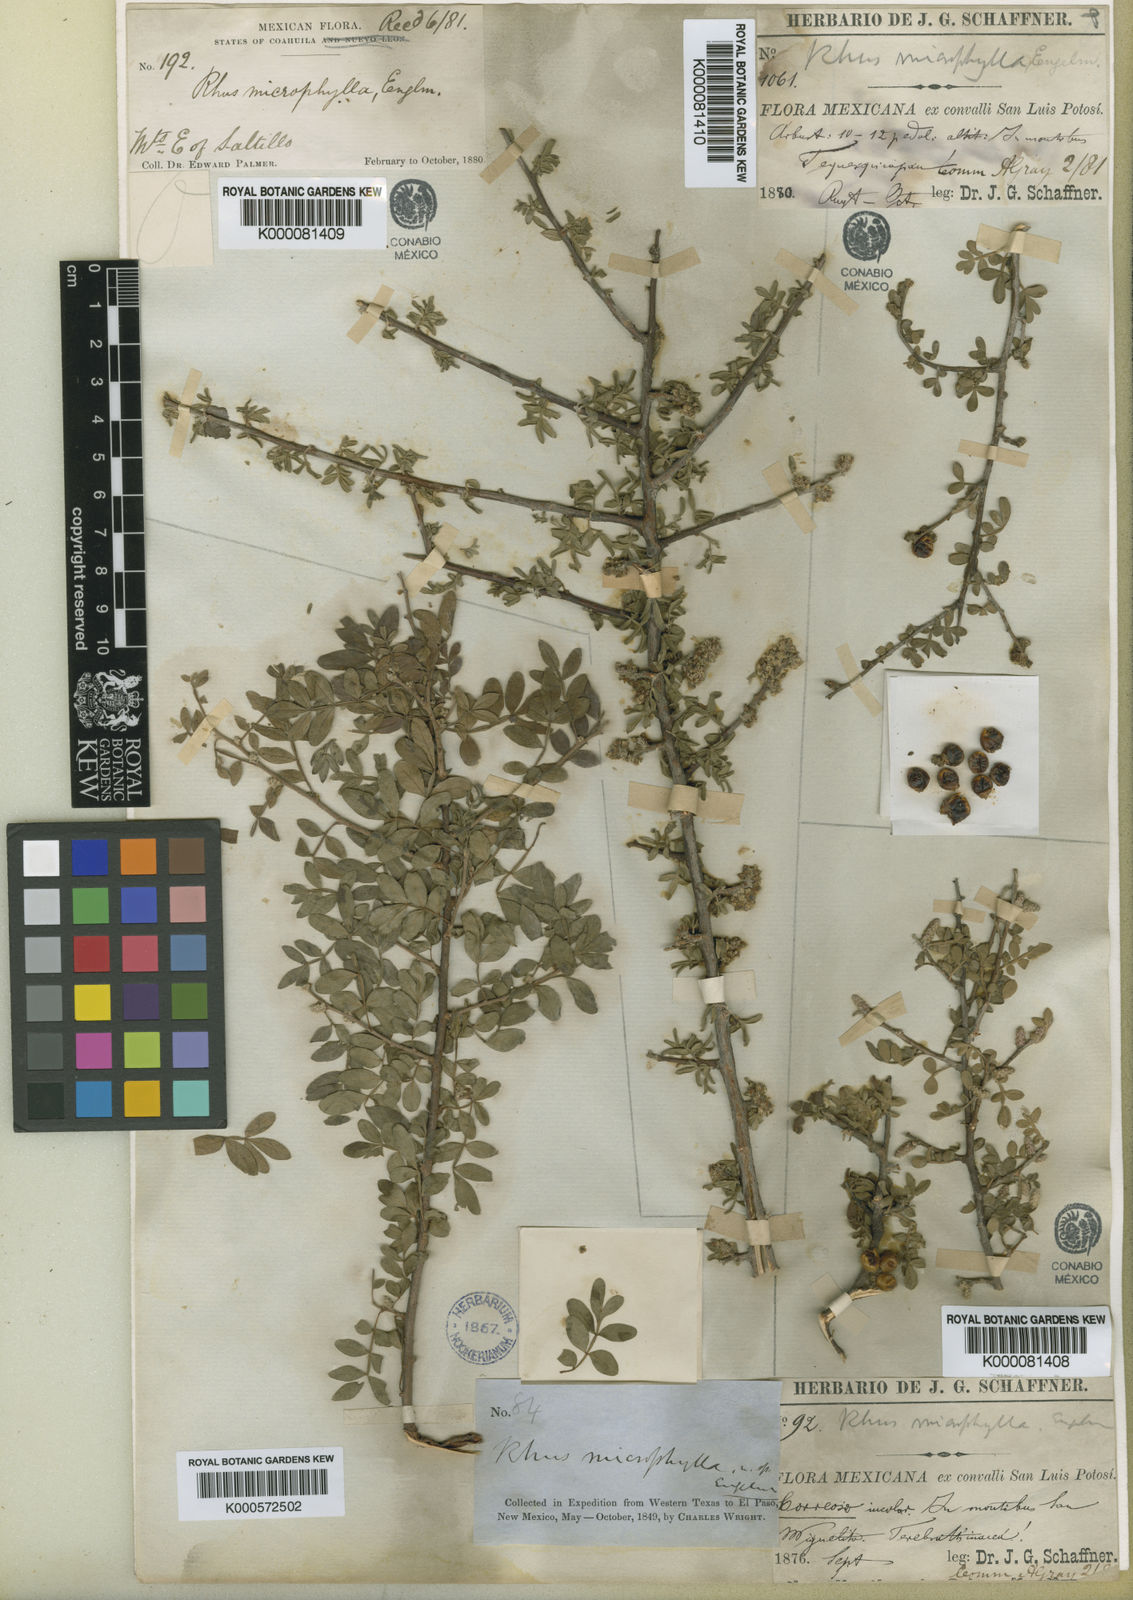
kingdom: Plantae
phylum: Tracheophyta
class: Magnoliopsida
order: Sapindales
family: Anacardiaceae
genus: Rhus
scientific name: Rhus microphylla
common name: Desert sumac
